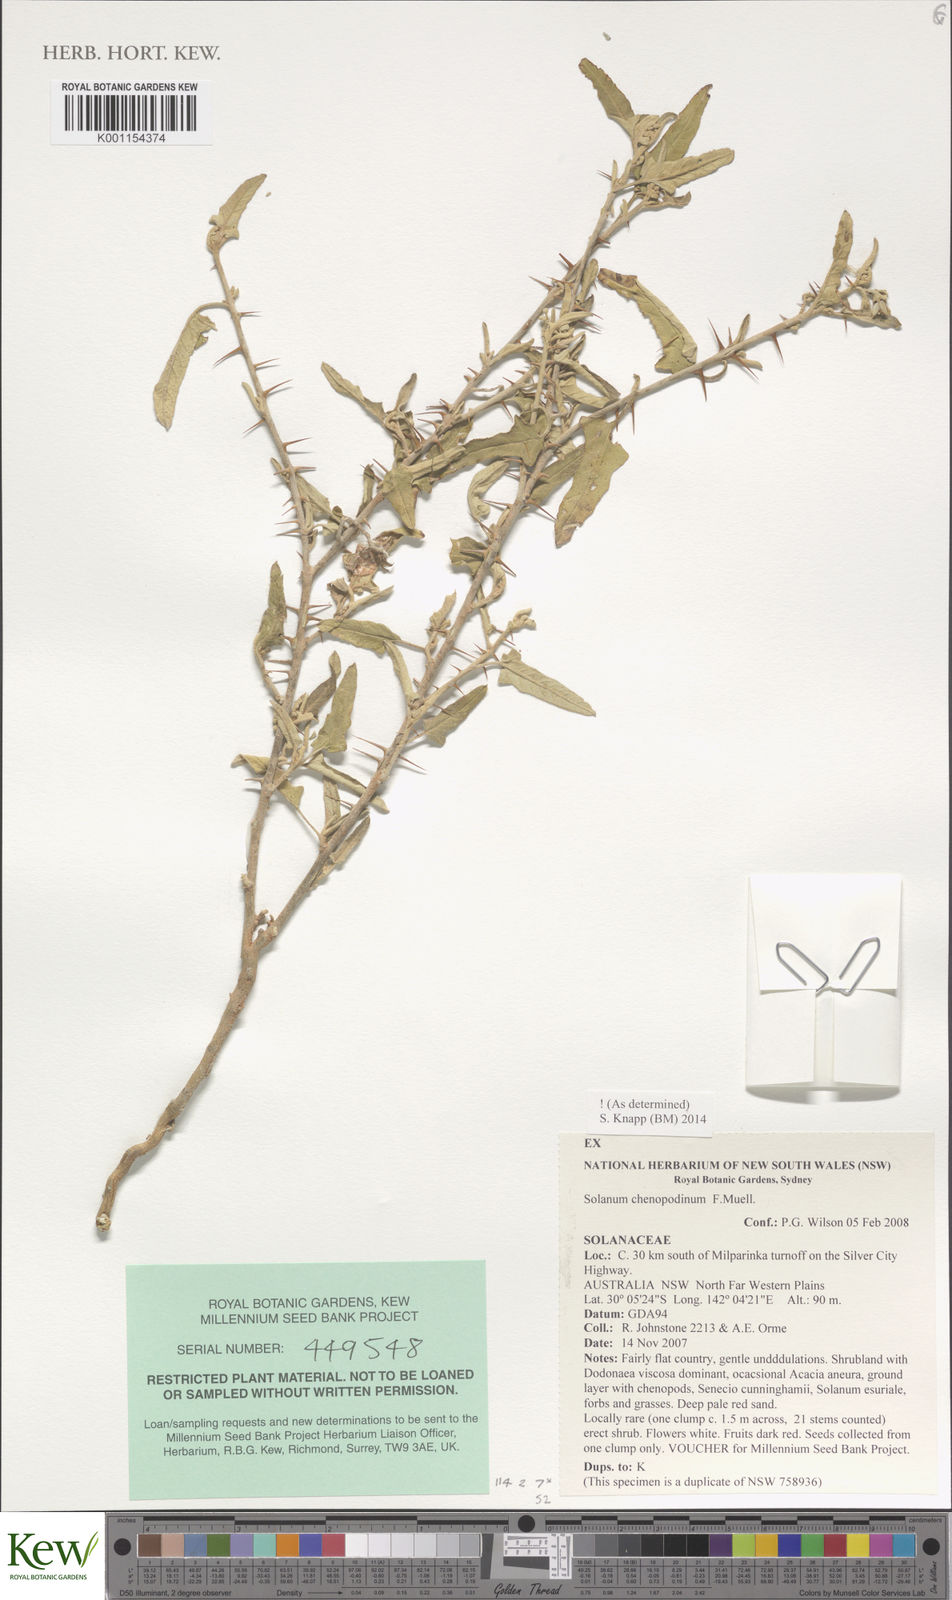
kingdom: Plantae
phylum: Tracheophyta
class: Magnoliopsida
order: Solanales
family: Solanaceae
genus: Solanum
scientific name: Solanum chenopodinum
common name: Goosefoot potato-bush
